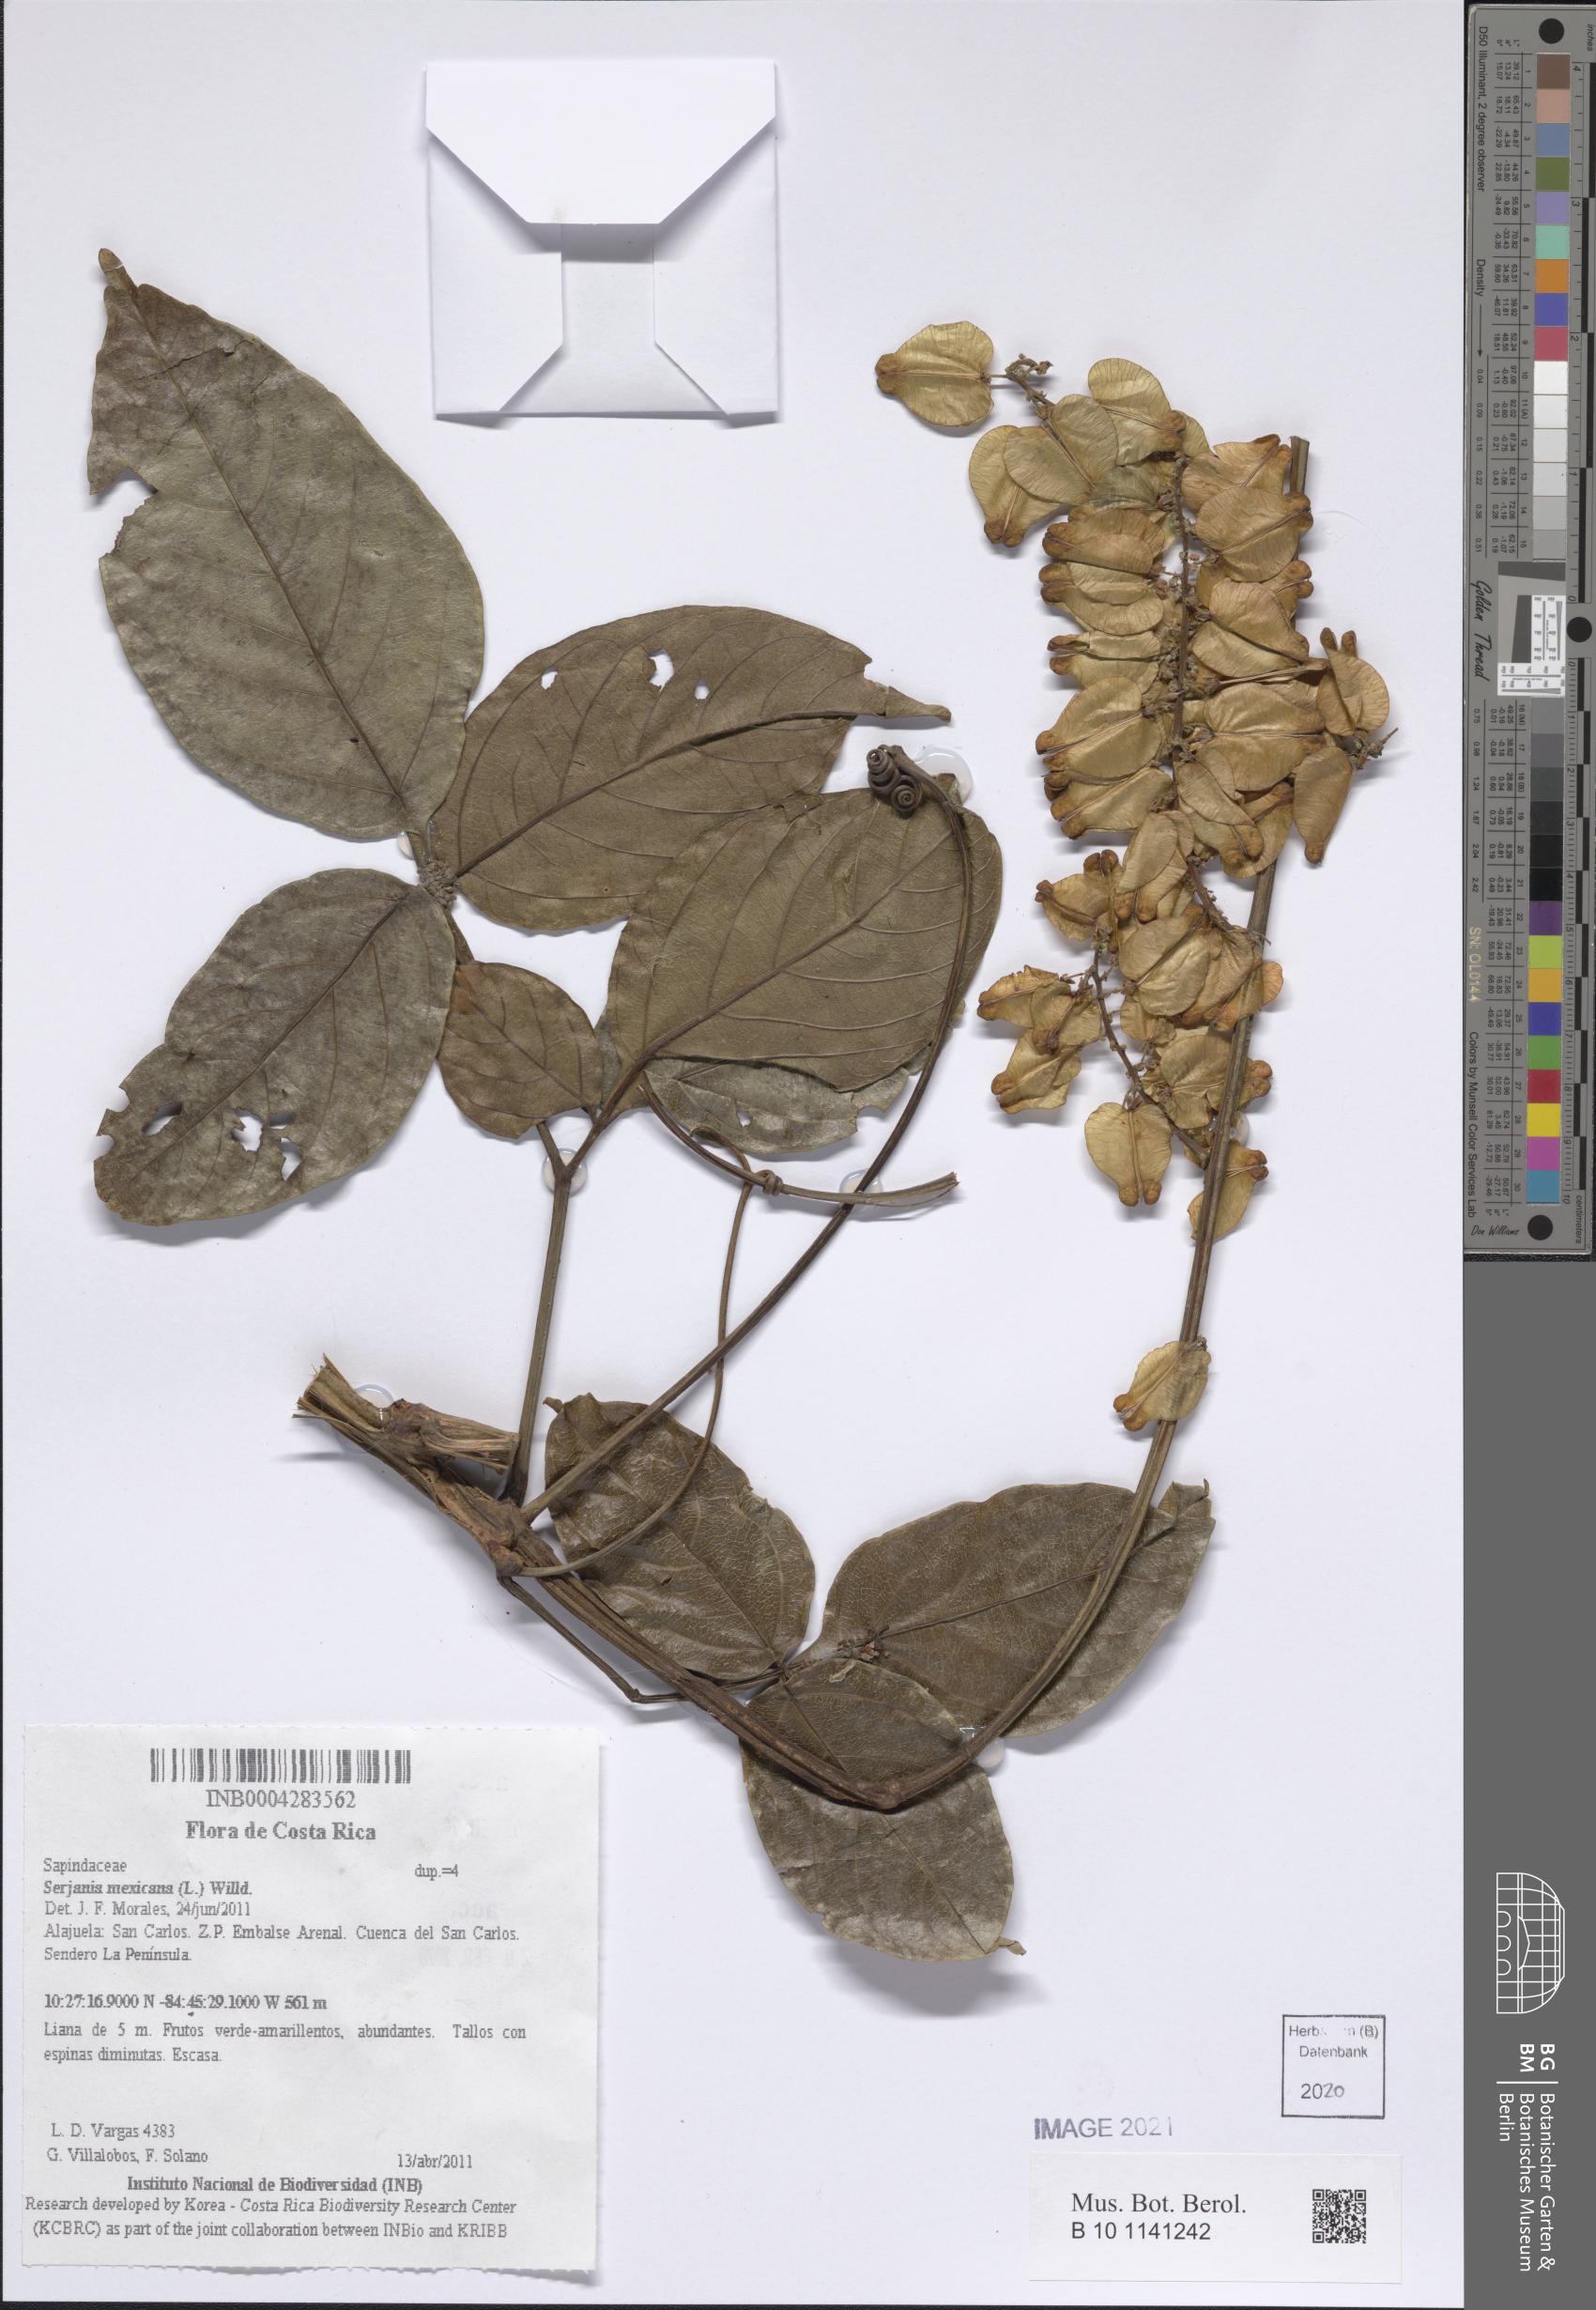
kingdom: Plantae
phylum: Tracheophyta
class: Magnoliopsida
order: Sapindales
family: Sapindaceae
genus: Serjania
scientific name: Serjania mexicana
